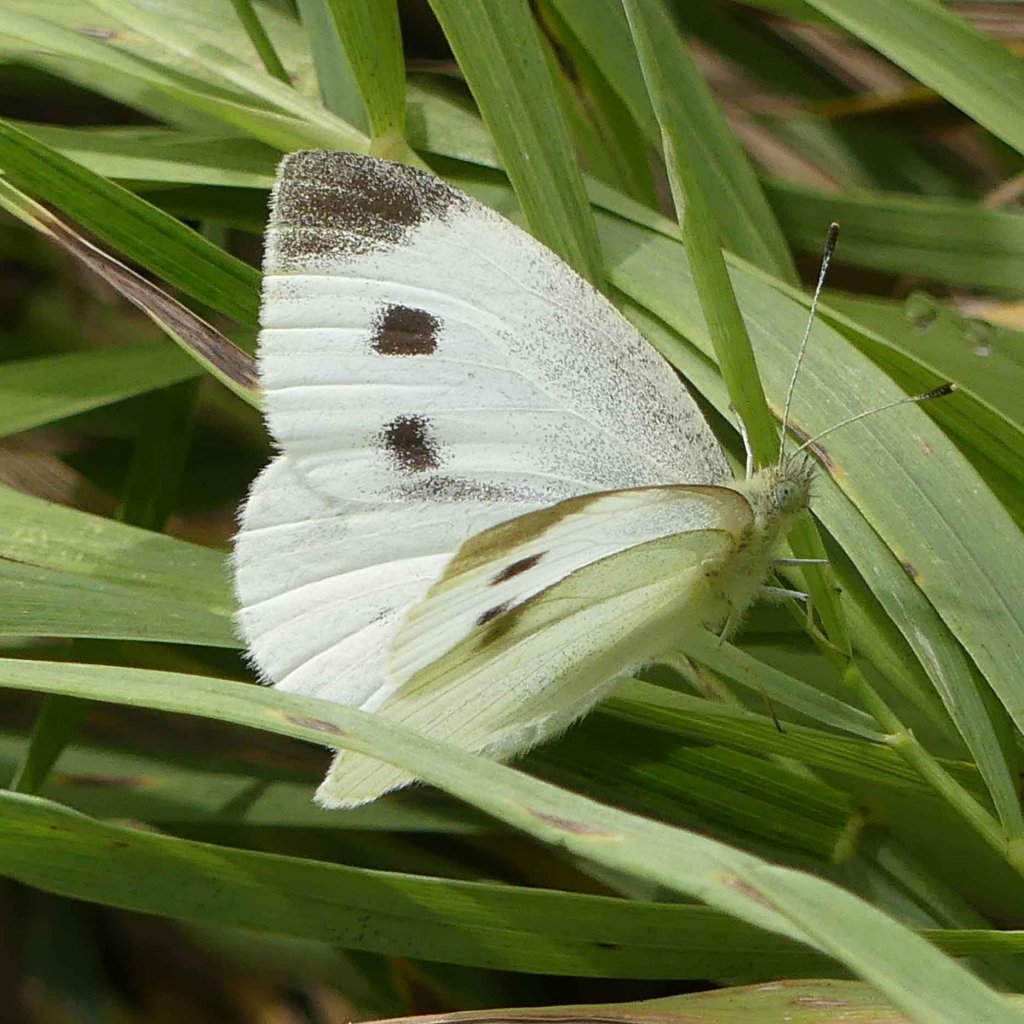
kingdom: Animalia
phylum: Arthropoda
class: Insecta
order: Lepidoptera
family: Pieridae
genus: Pieris
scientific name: Pieris rapae
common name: Cabbage White
